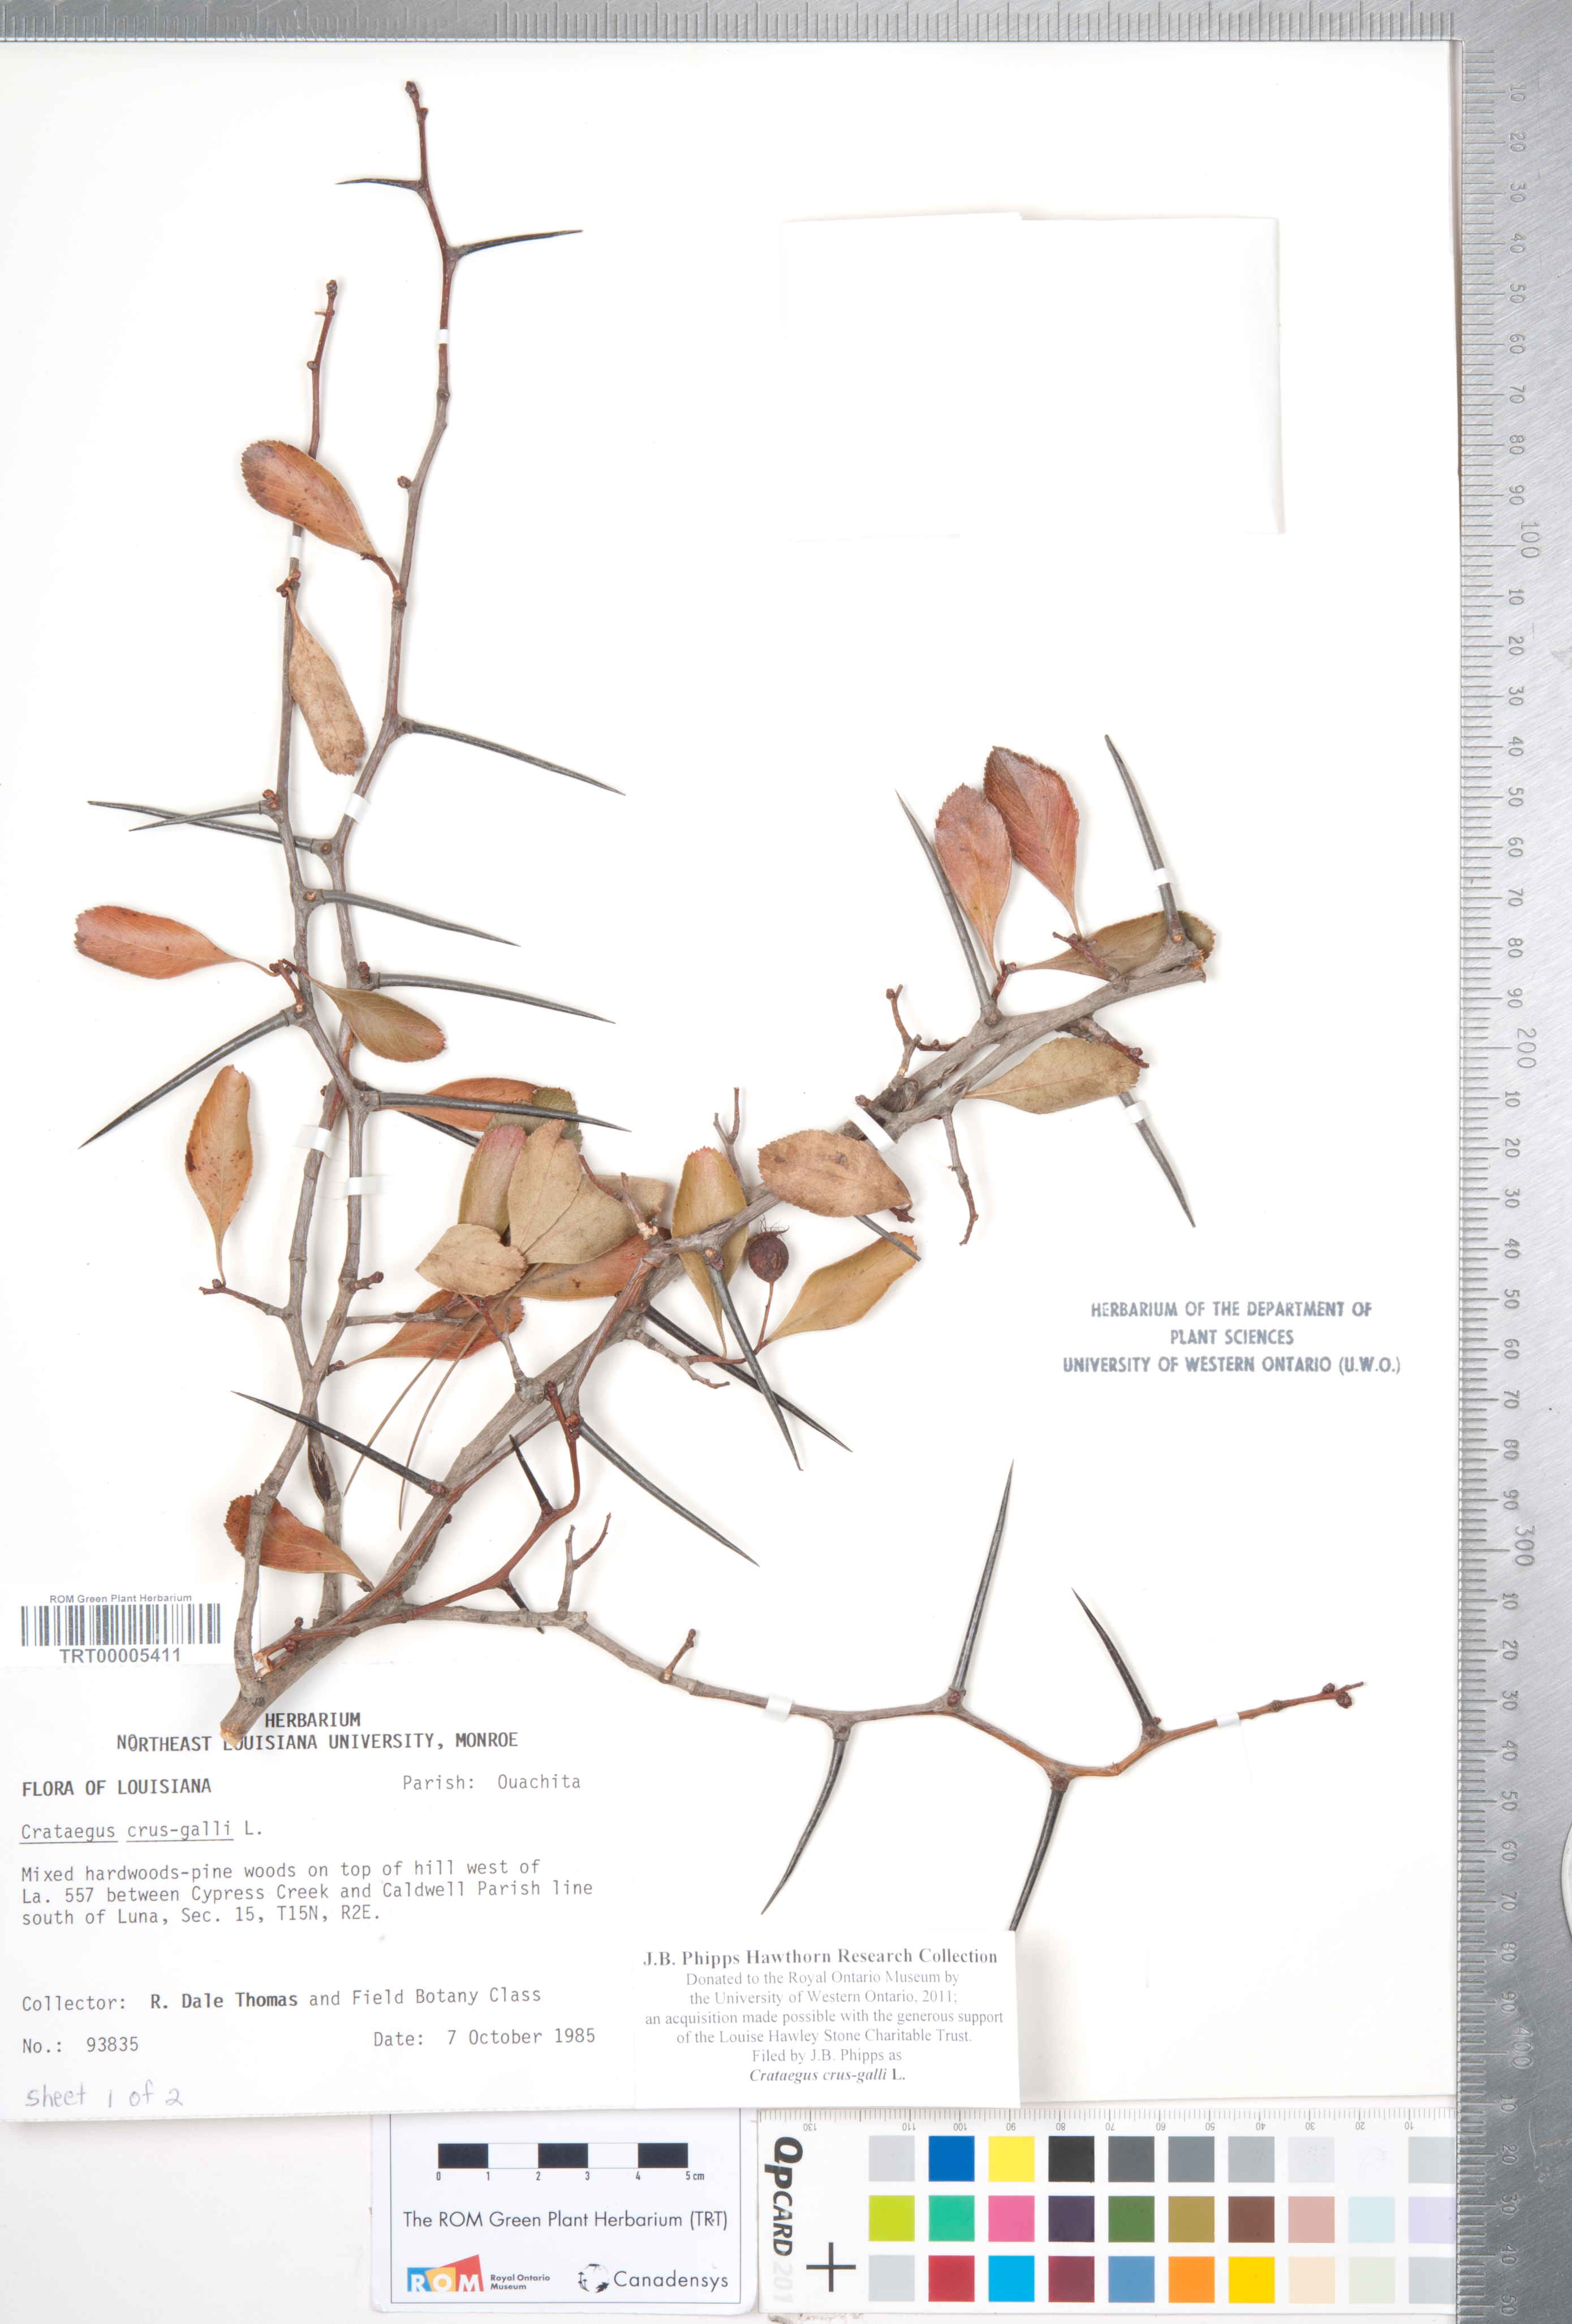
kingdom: Plantae
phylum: Tracheophyta
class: Magnoliopsida
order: Rosales
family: Rosaceae
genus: Crataegus
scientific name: Crataegus crus-galli
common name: Cockspurthorn
